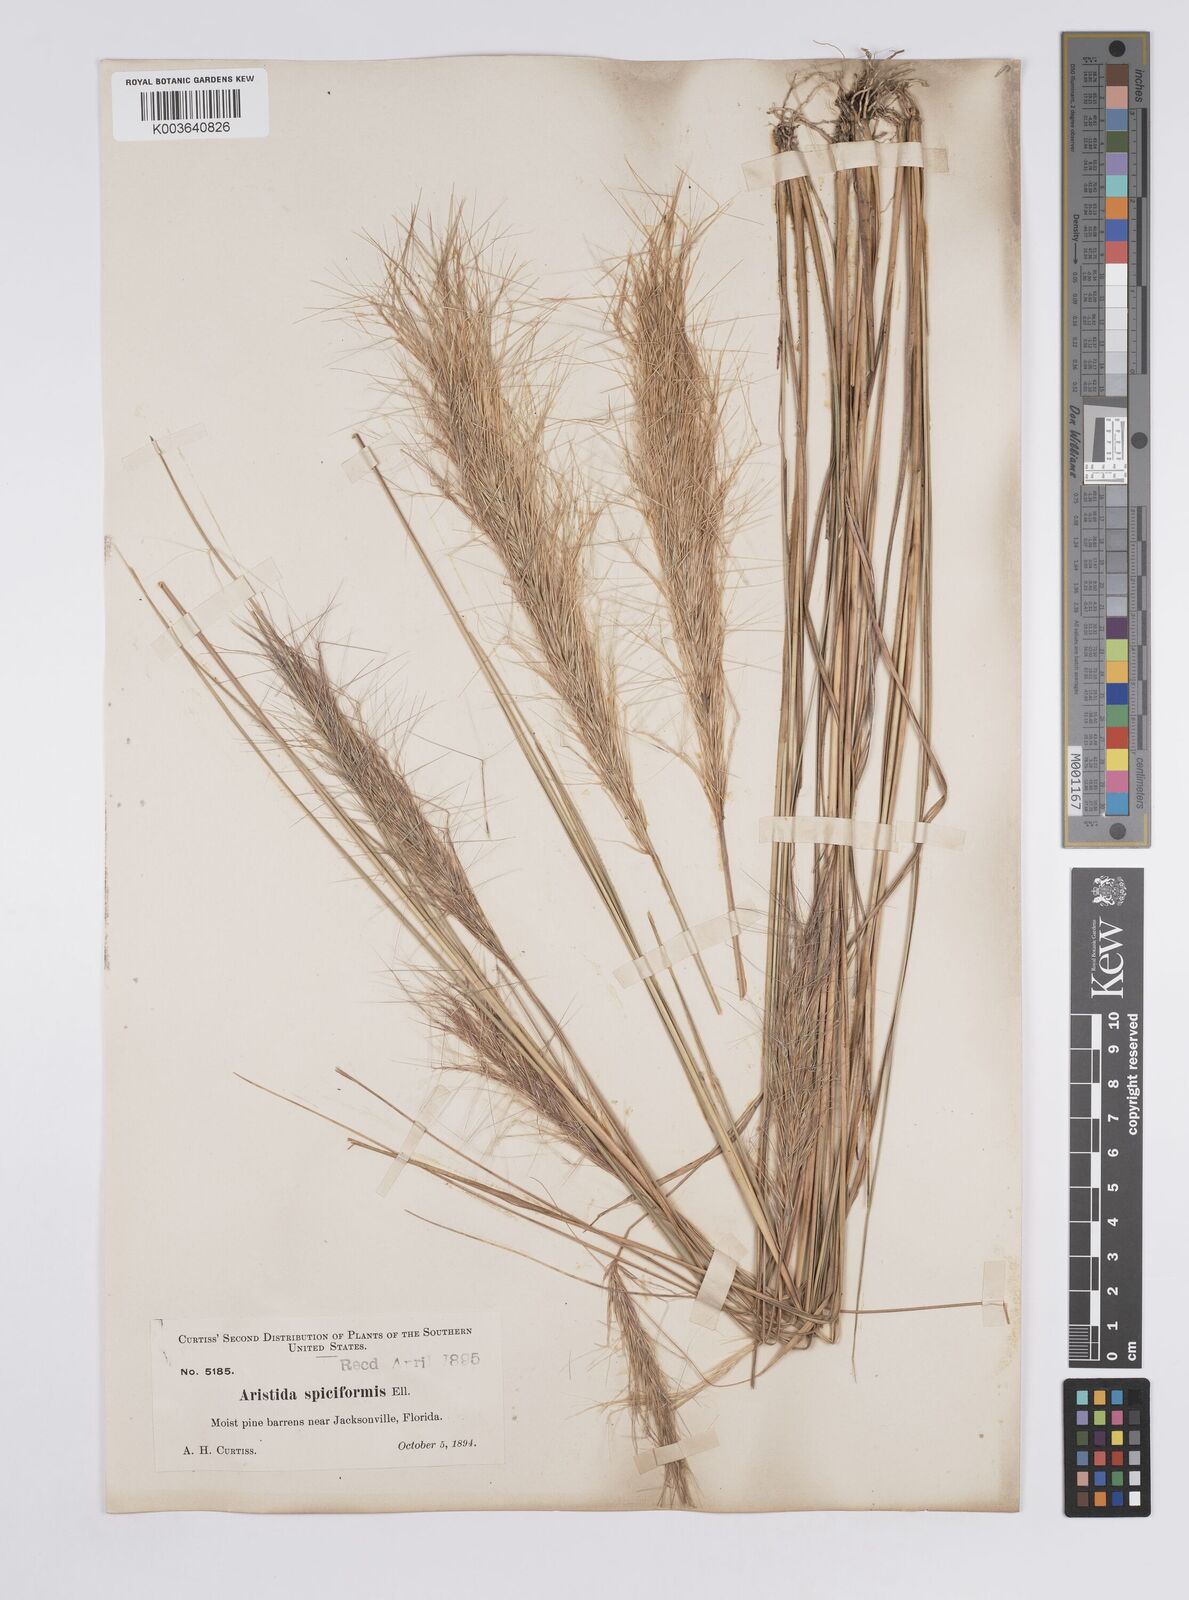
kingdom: Plantae
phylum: Tracheophyta
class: Liliopsida
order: Poales
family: Poaceae
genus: Aristida
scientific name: Aristida spiciformis
